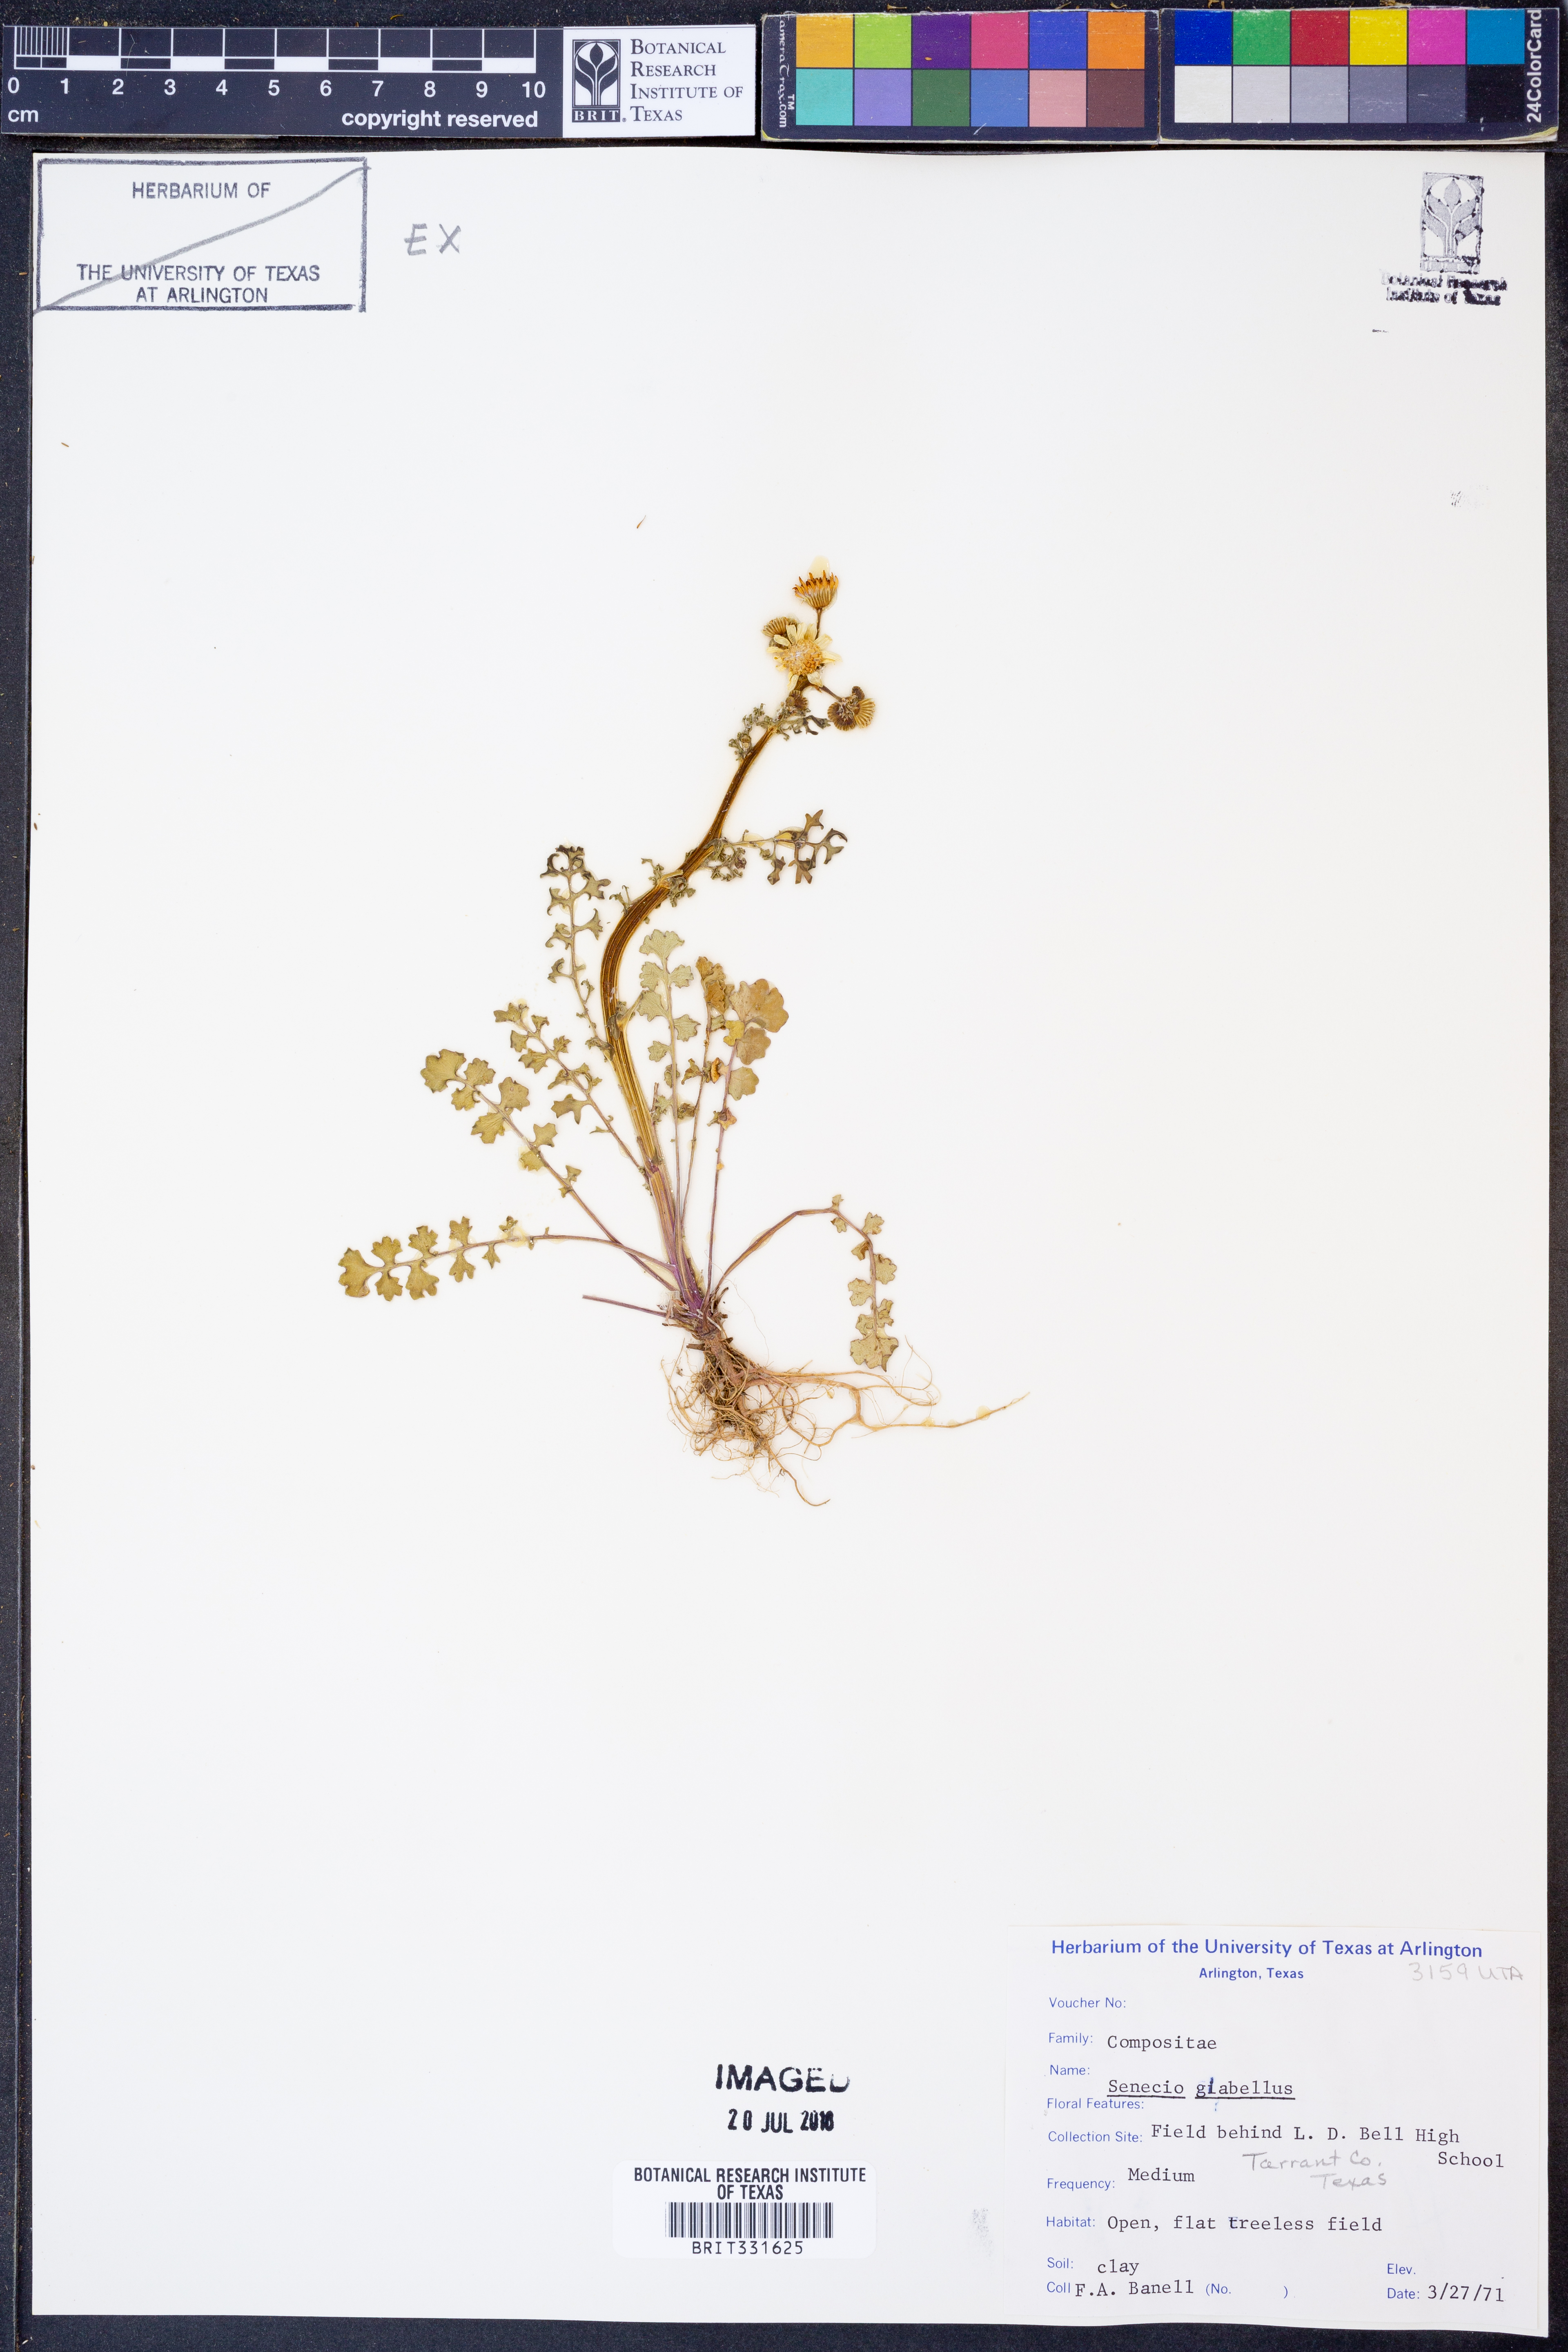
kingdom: Plantae
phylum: Tracheophyta
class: Magnoliopsida
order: Asterales
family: Asteraceae
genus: Tephroseris
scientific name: Tephroseris praticola
